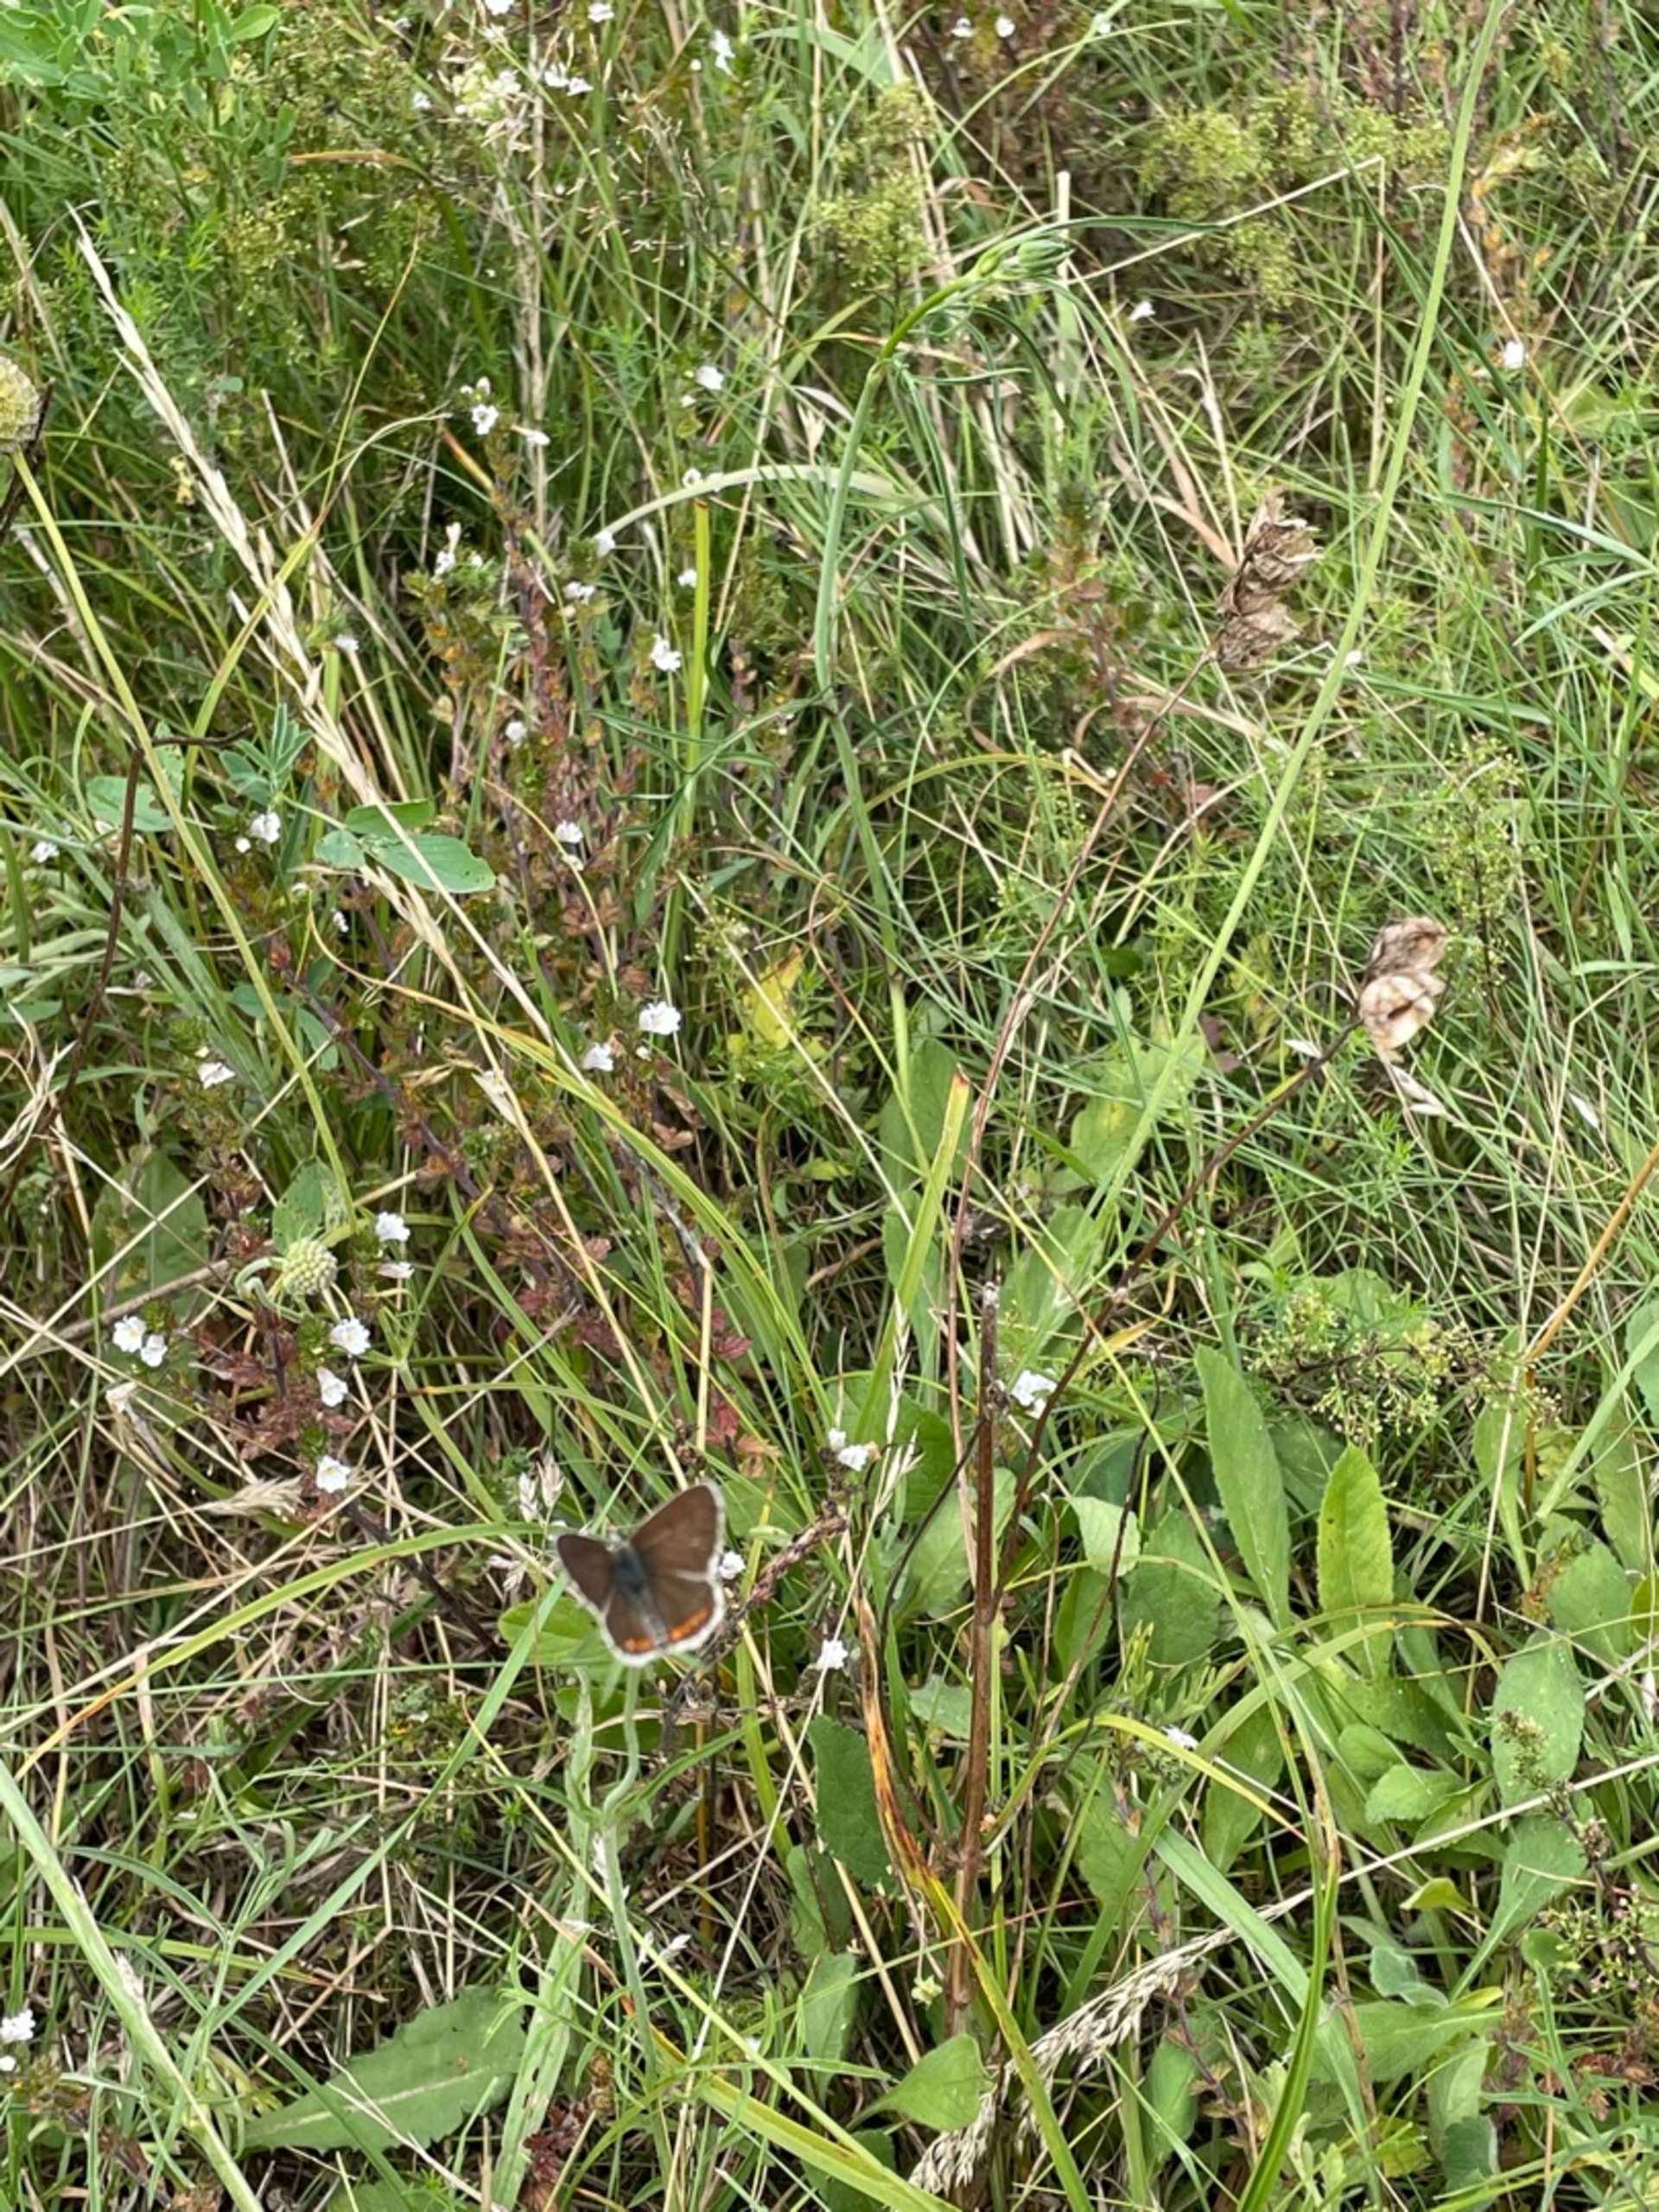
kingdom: Animalia
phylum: Arthropoda
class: Insecta
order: Lepidoptera
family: Lycaenidae
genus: Aricia
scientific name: Aricia agestis
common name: Rødplettet blåfugl
